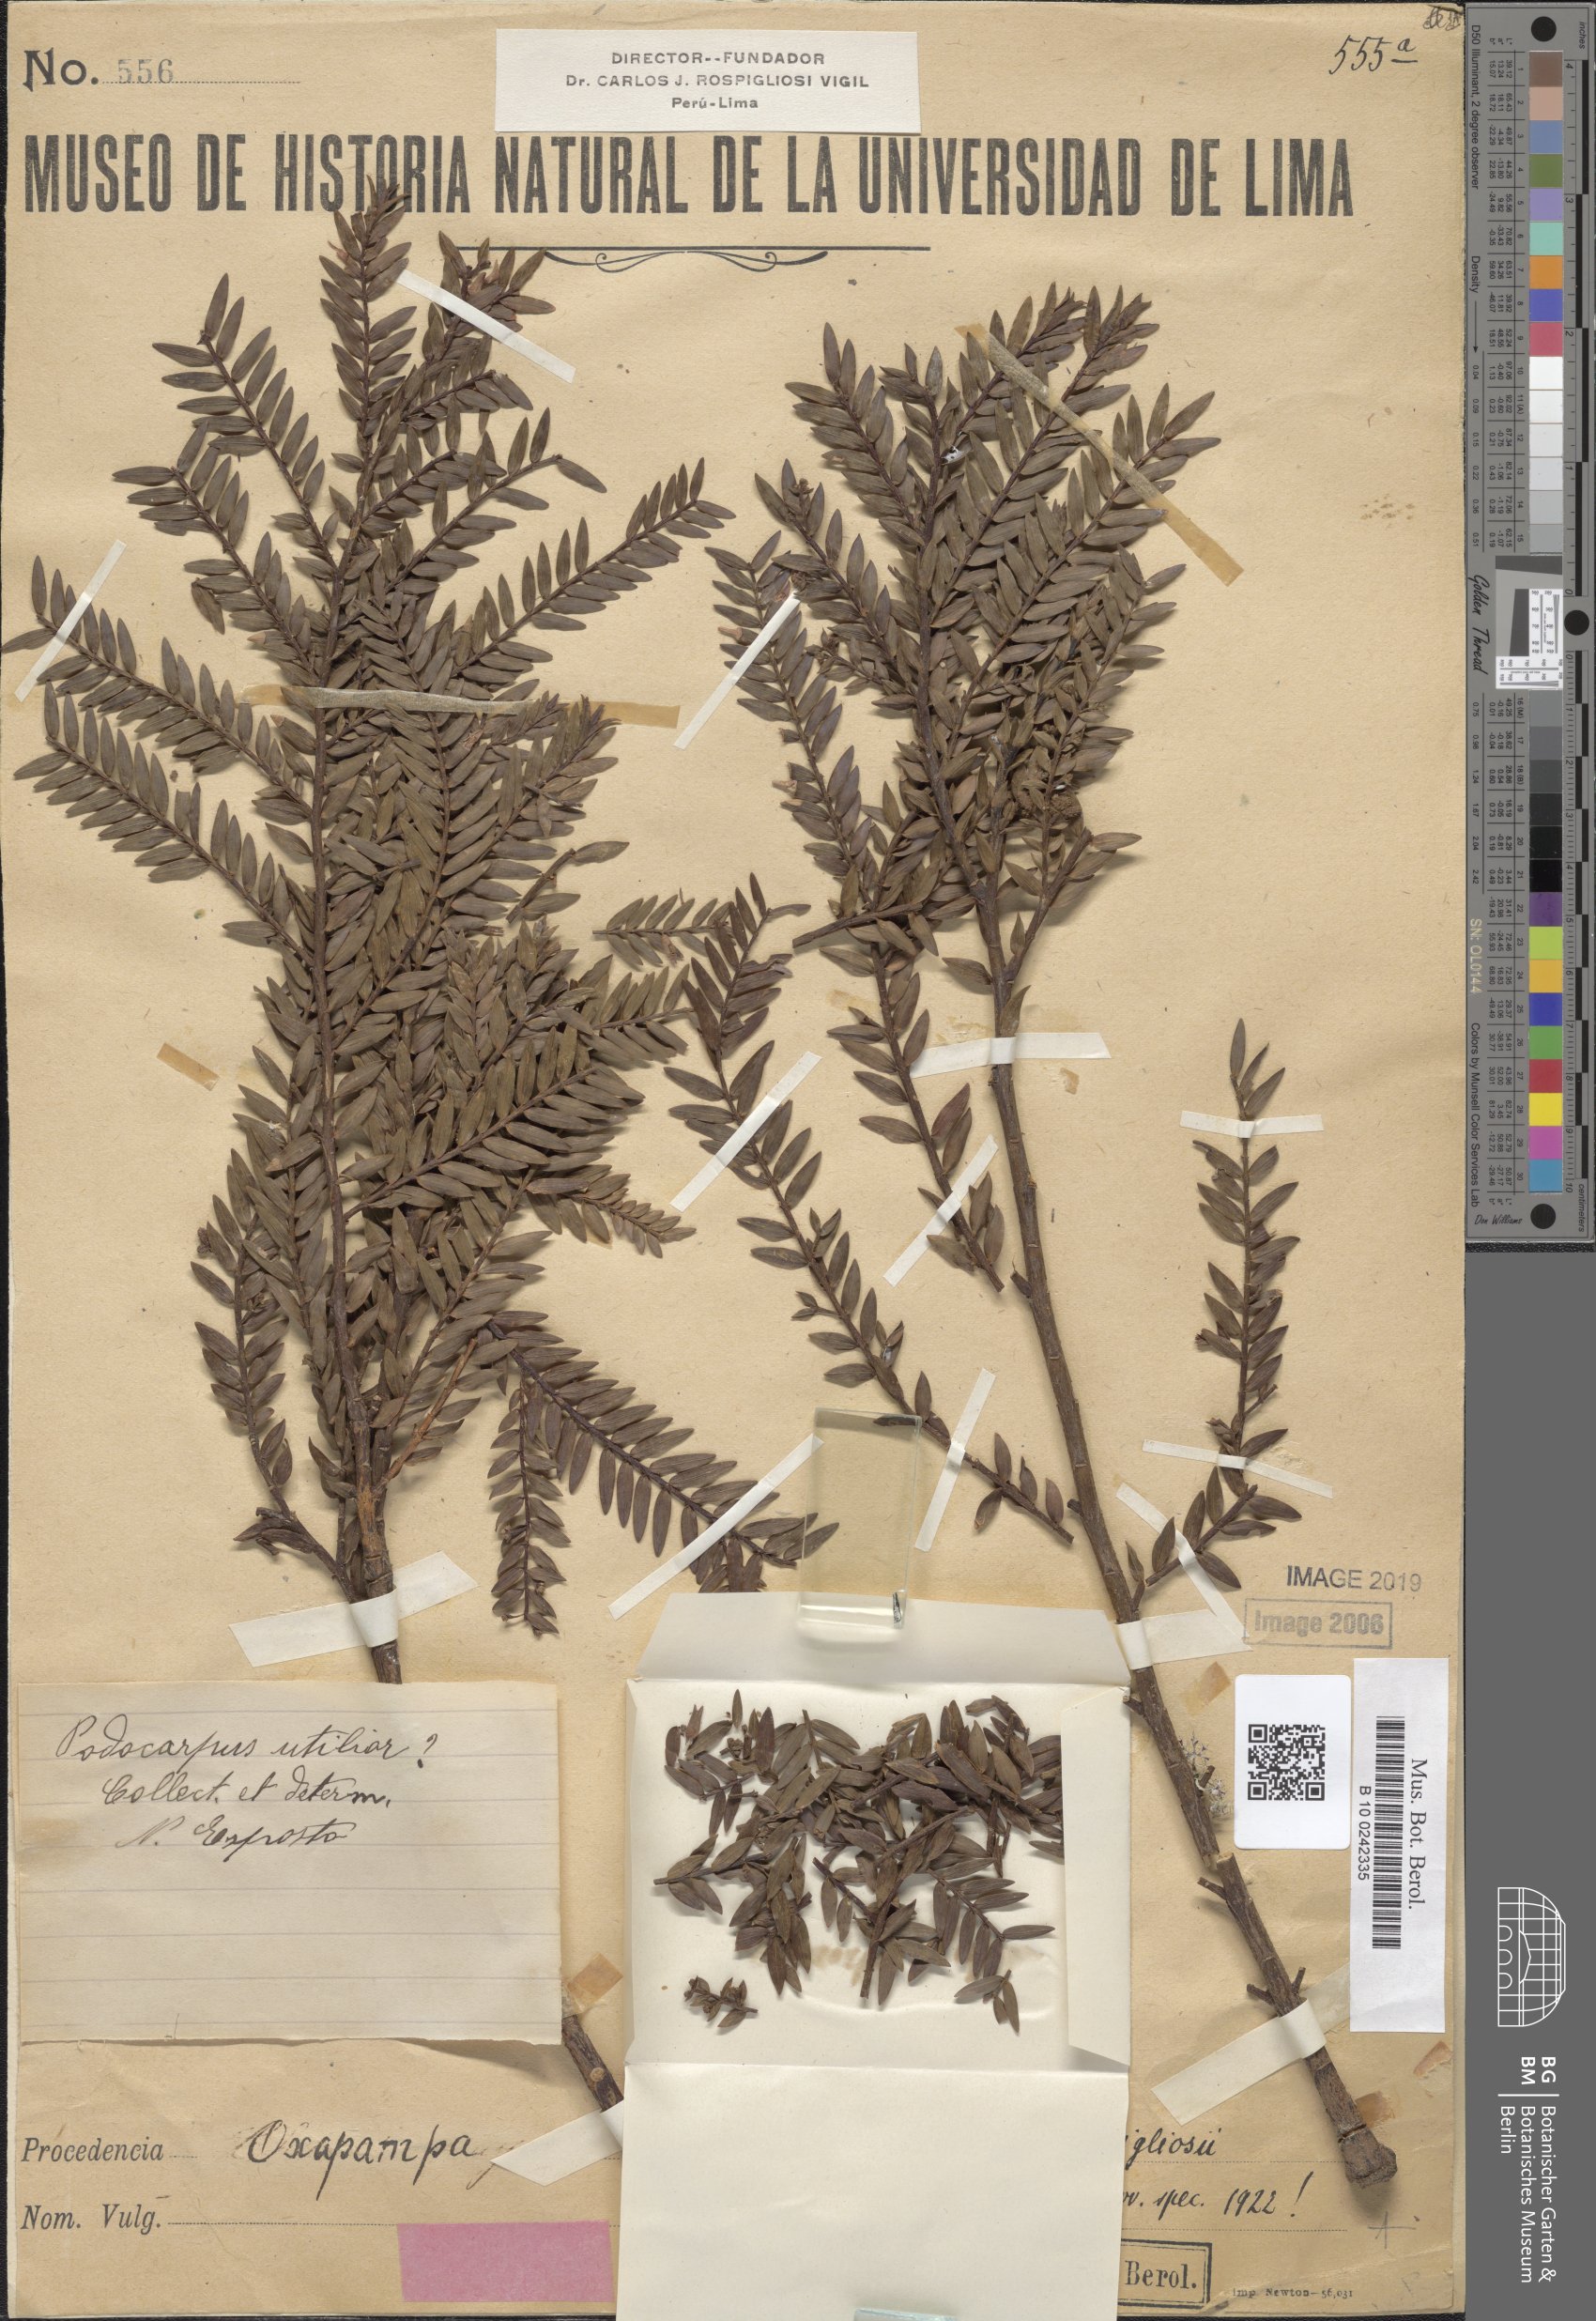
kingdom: Plantae
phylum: Tracheophyta
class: Pinopsida
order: Pinales
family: Podocarpaceae
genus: Retrophyllum
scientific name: Retrophyllum rospigliosii
